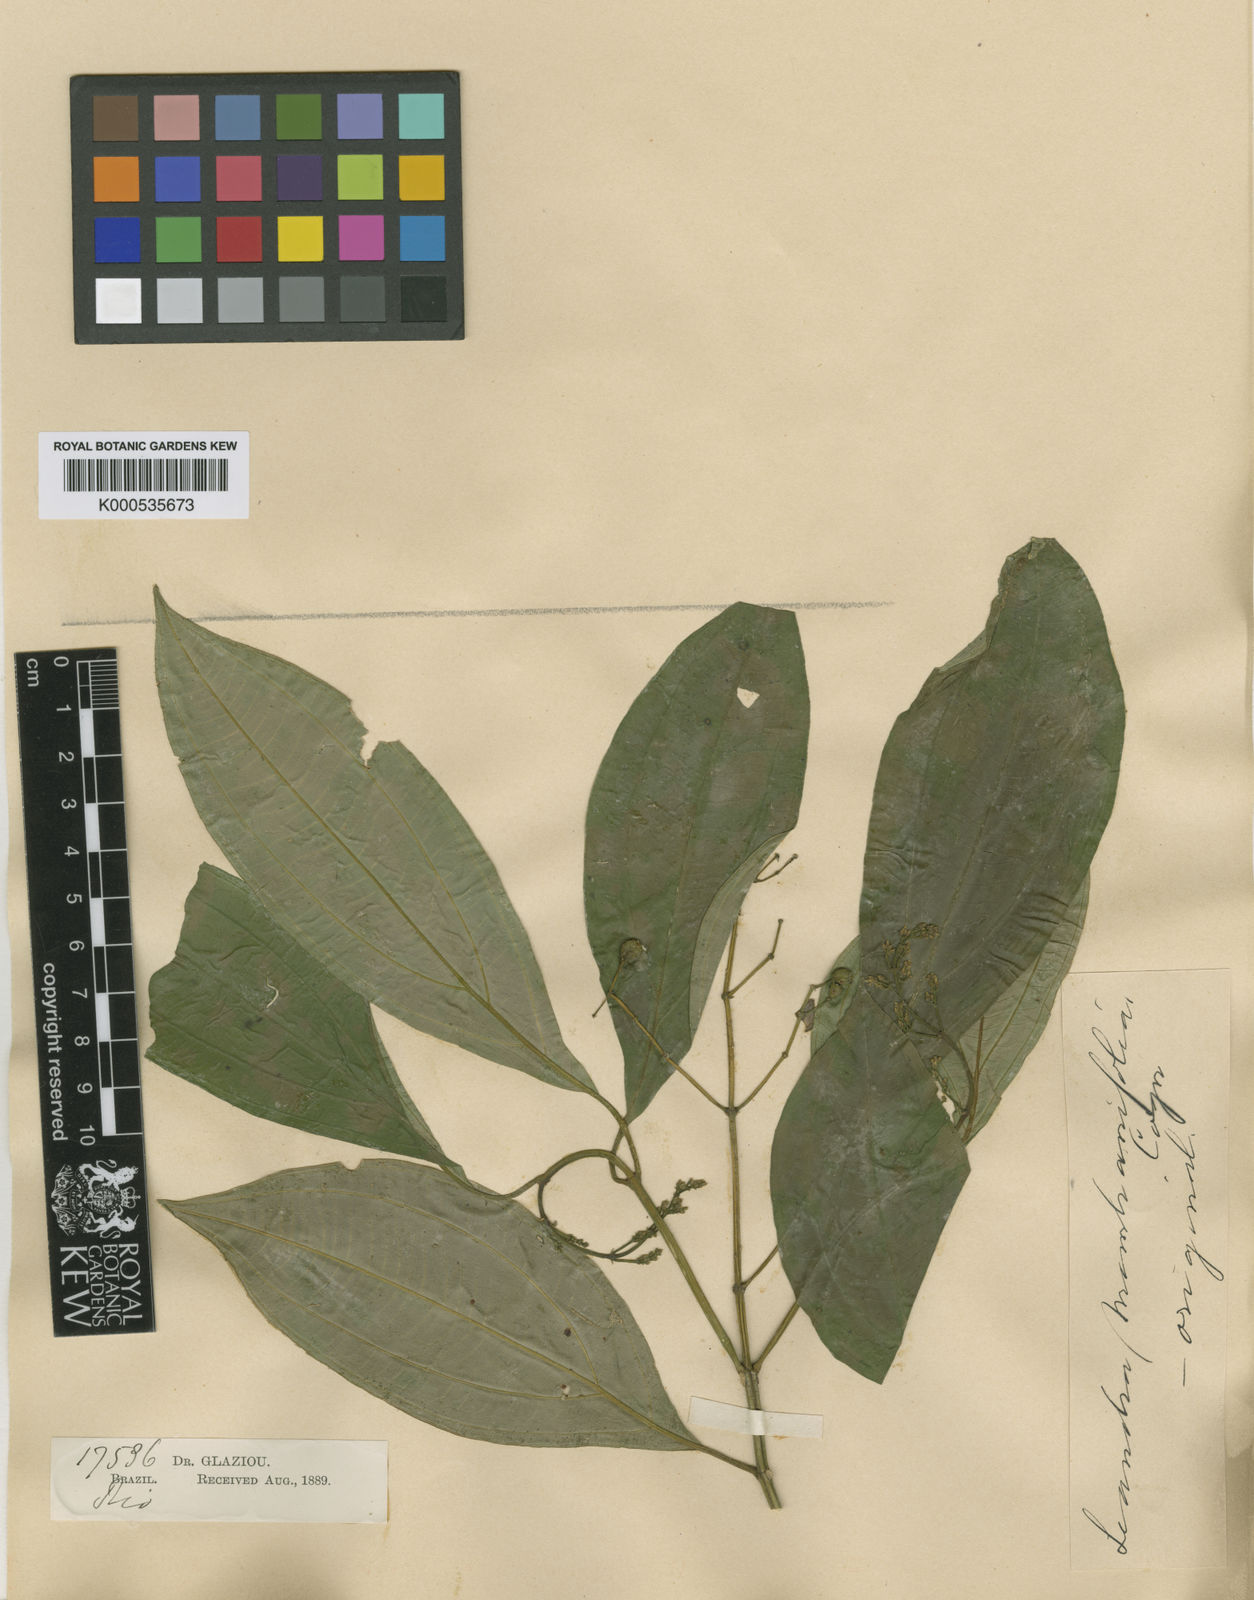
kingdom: Plantae
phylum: Tracheophyta
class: Magnoliopsida
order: Myrtales
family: Melastomataceae
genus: Miconia
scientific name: Miconia acutiflora
